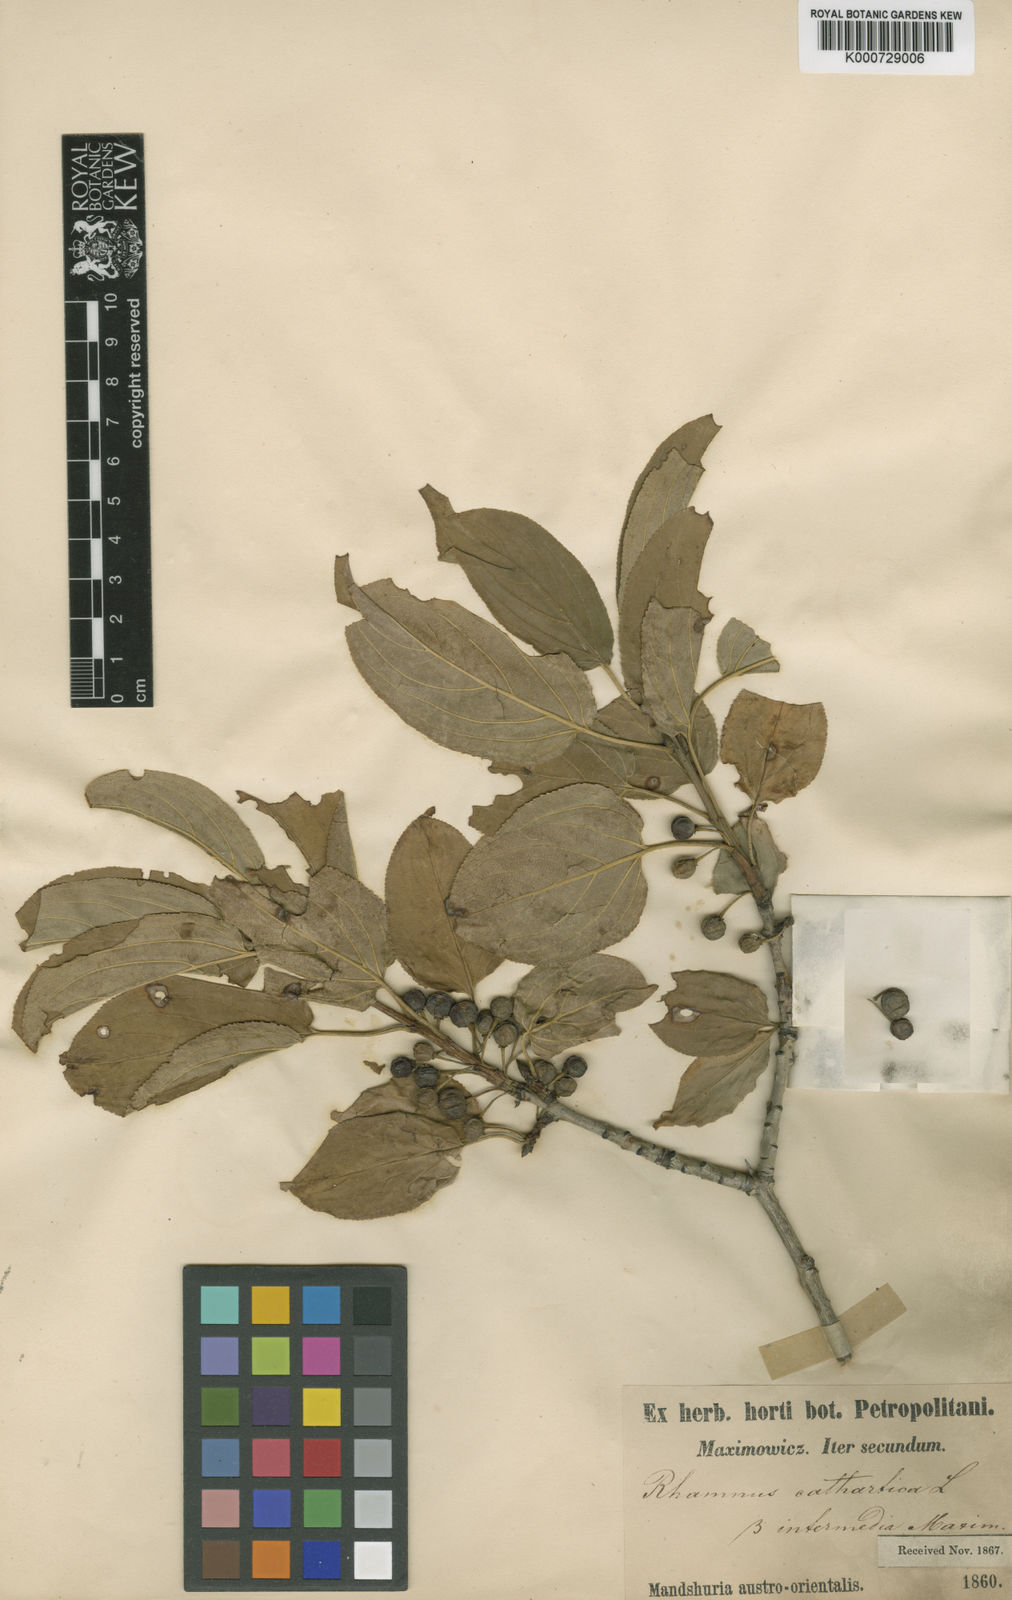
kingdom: Plantae
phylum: Tracheophyta
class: Magnoliopsida
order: Rosales
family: Rhamnaceae
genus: Rhamnus
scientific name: Rhamnus cathartica
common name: Common buckthorn
